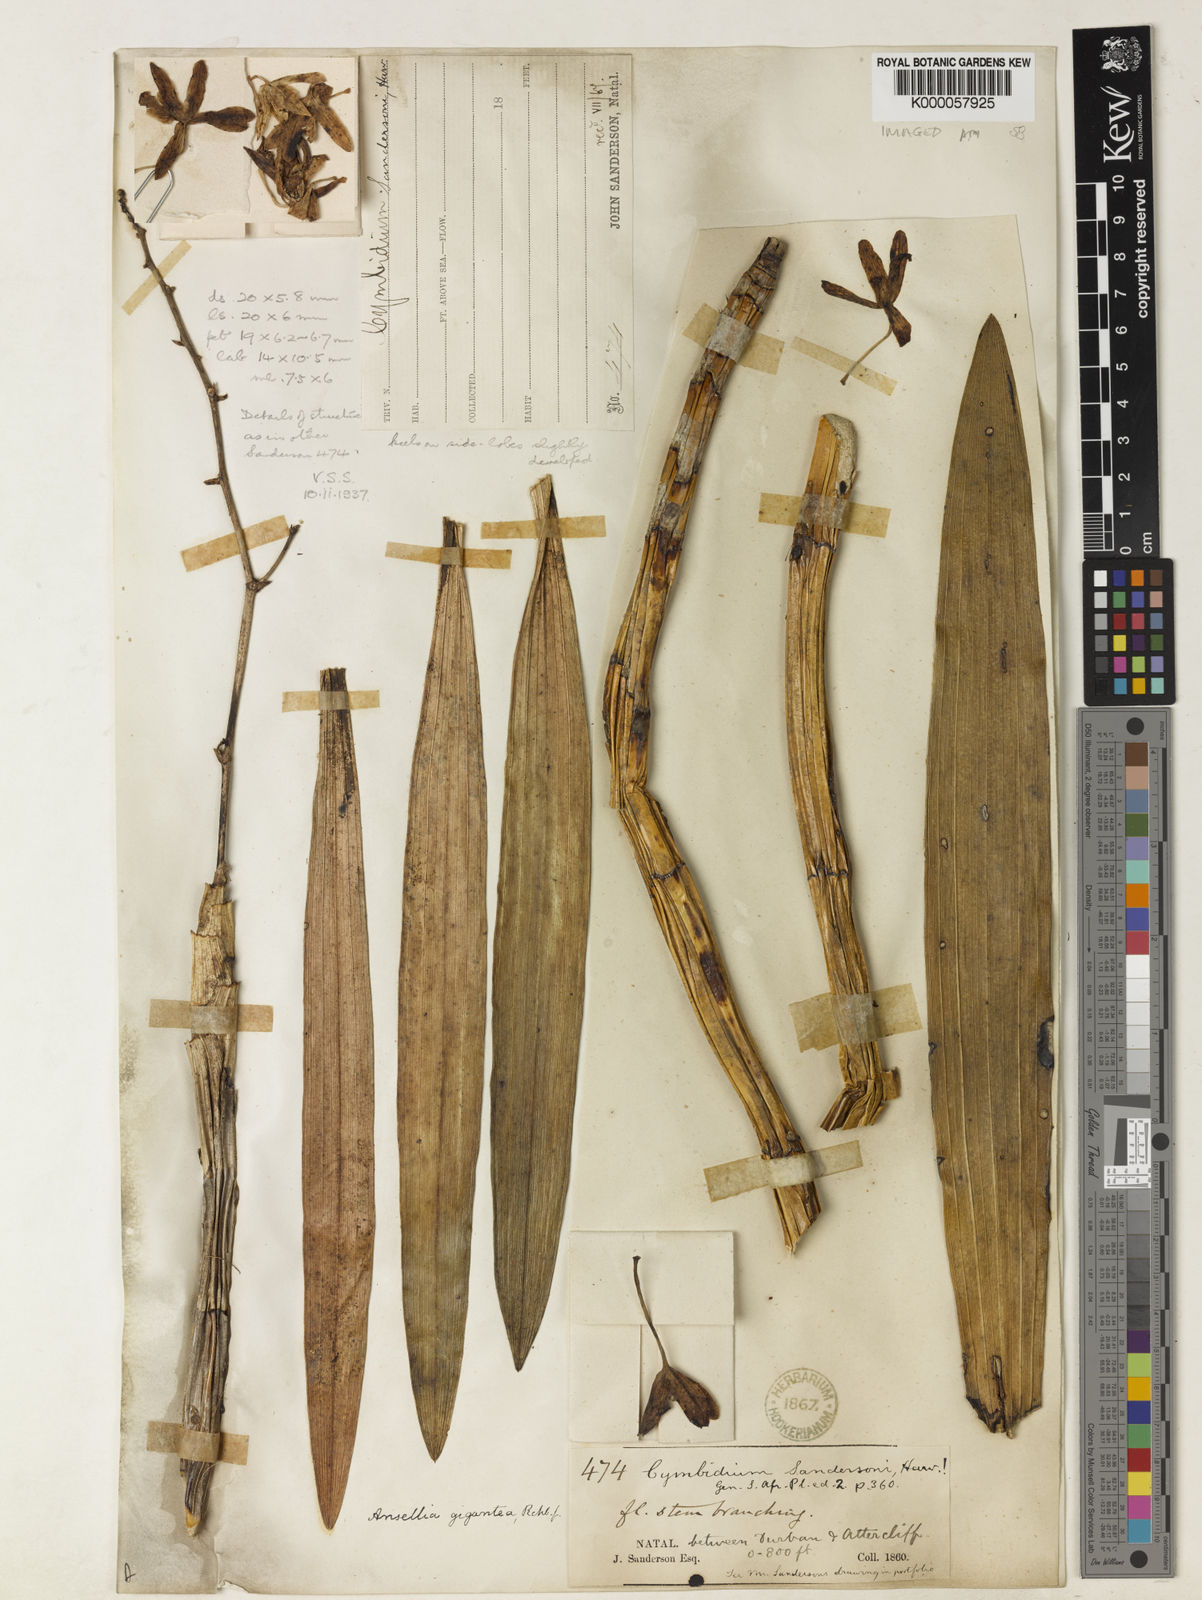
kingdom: Plantae
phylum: Tracheophyta
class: Liliopsida
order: Asparagales
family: Orchidaceae
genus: Ansellia
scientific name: Ansellia africana
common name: African ansellia
